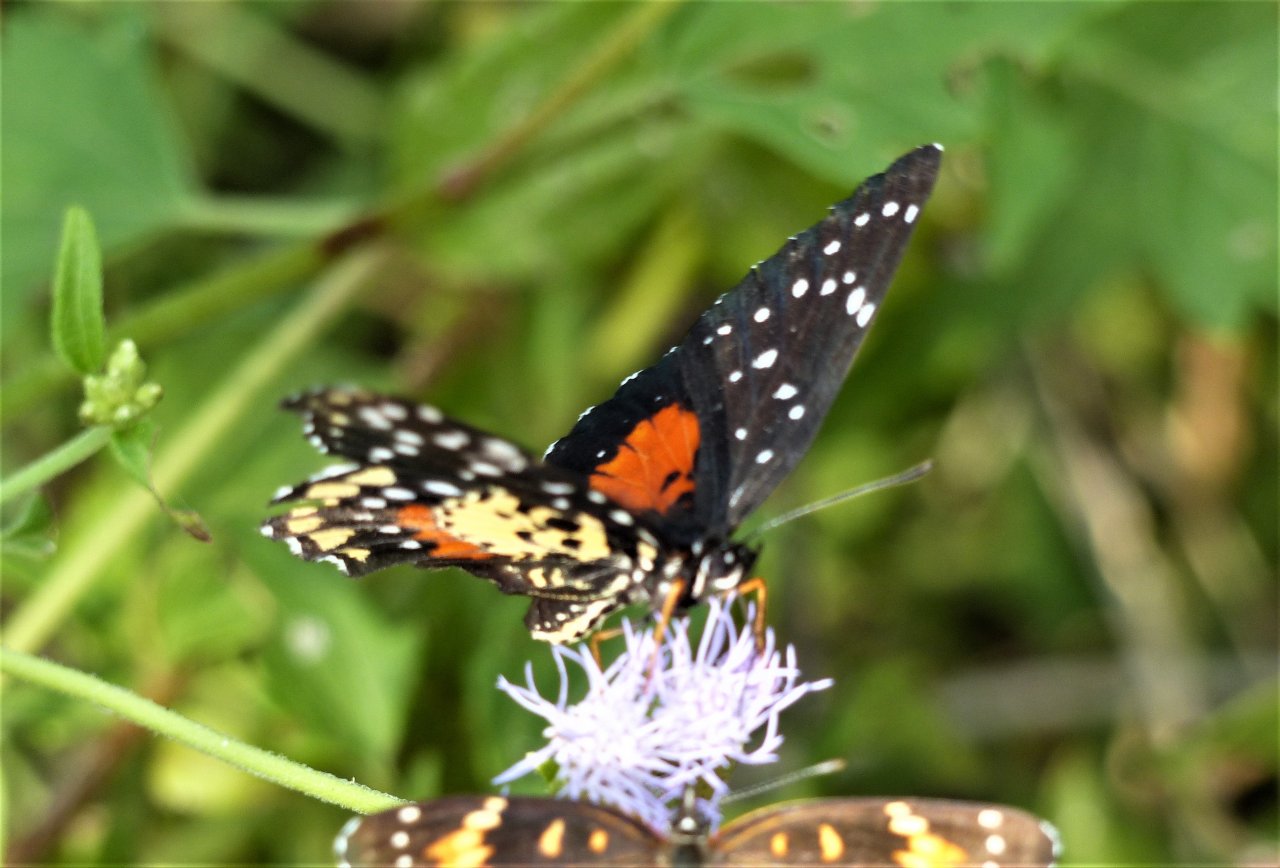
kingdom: Animalia
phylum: Arthropoda
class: Insecta
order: Lepidoptera
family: Nymphalidae
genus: Chlosyne
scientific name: Chlosyne janais
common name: Crimson Patch
